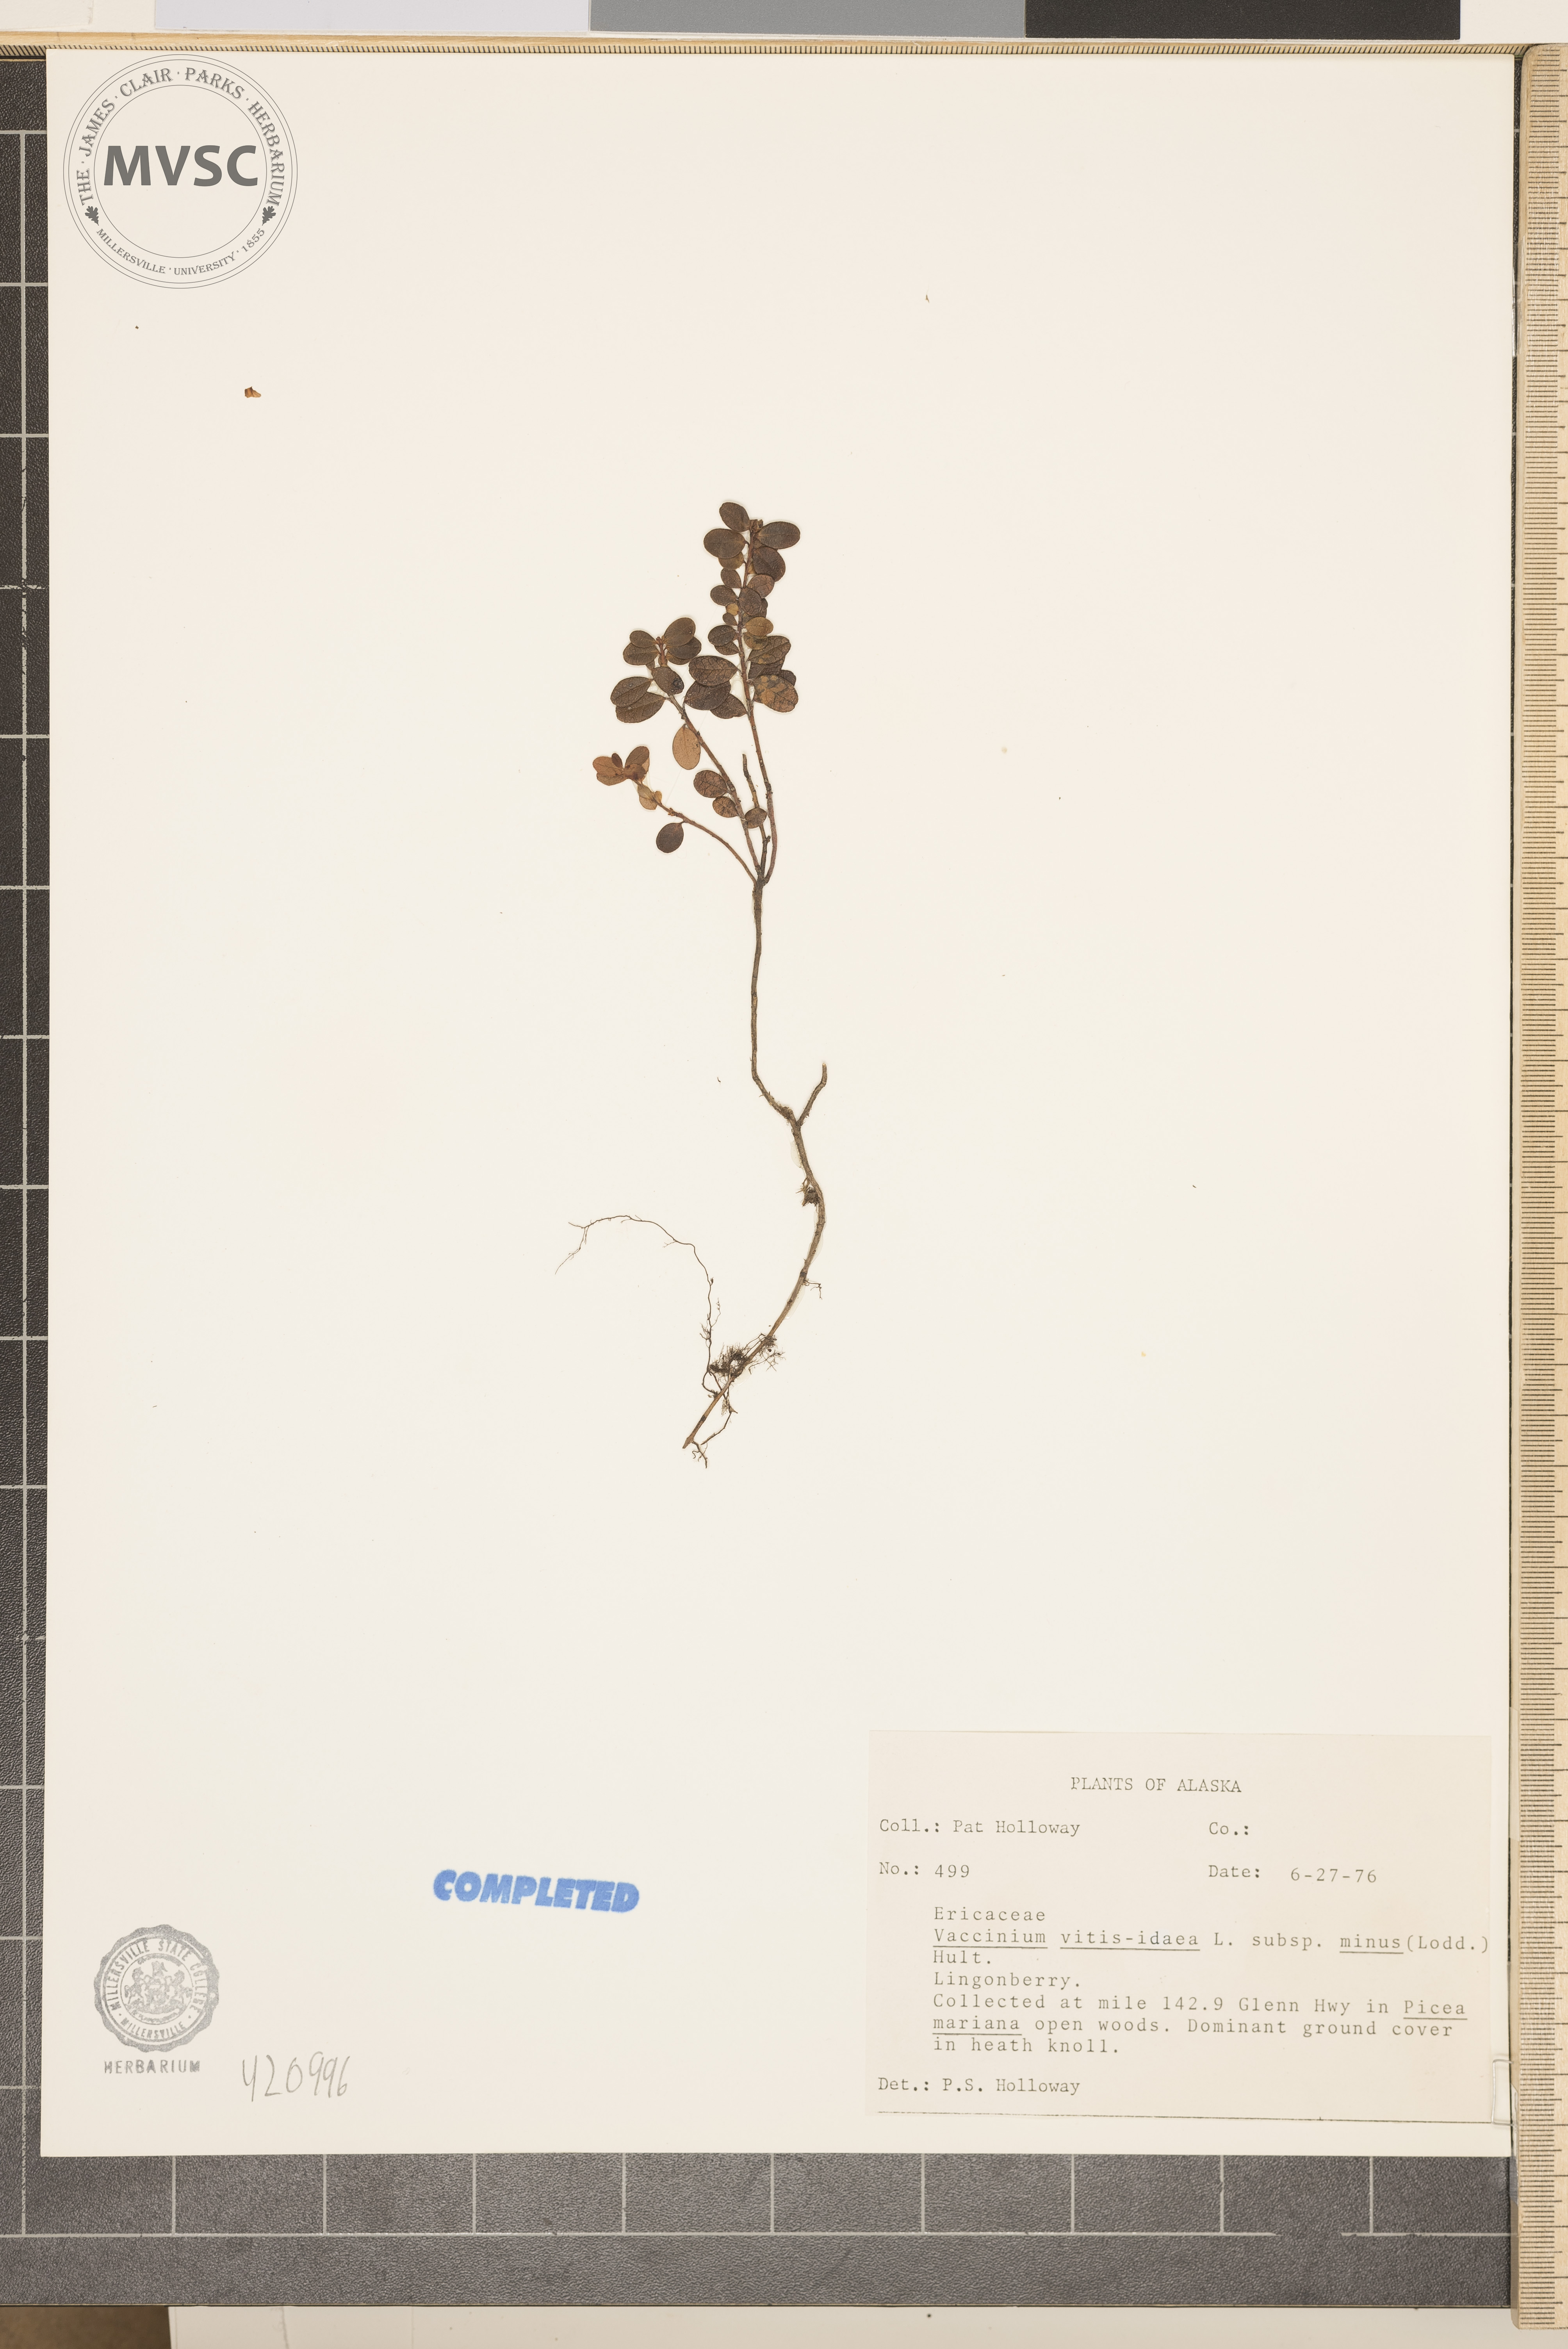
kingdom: Plantae
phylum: Tracheophyta
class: Magnoliopsida
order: Ericales
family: Ericaceae
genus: Vaccinium
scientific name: Vaccinium vitis-idaea
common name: Lingonberry
